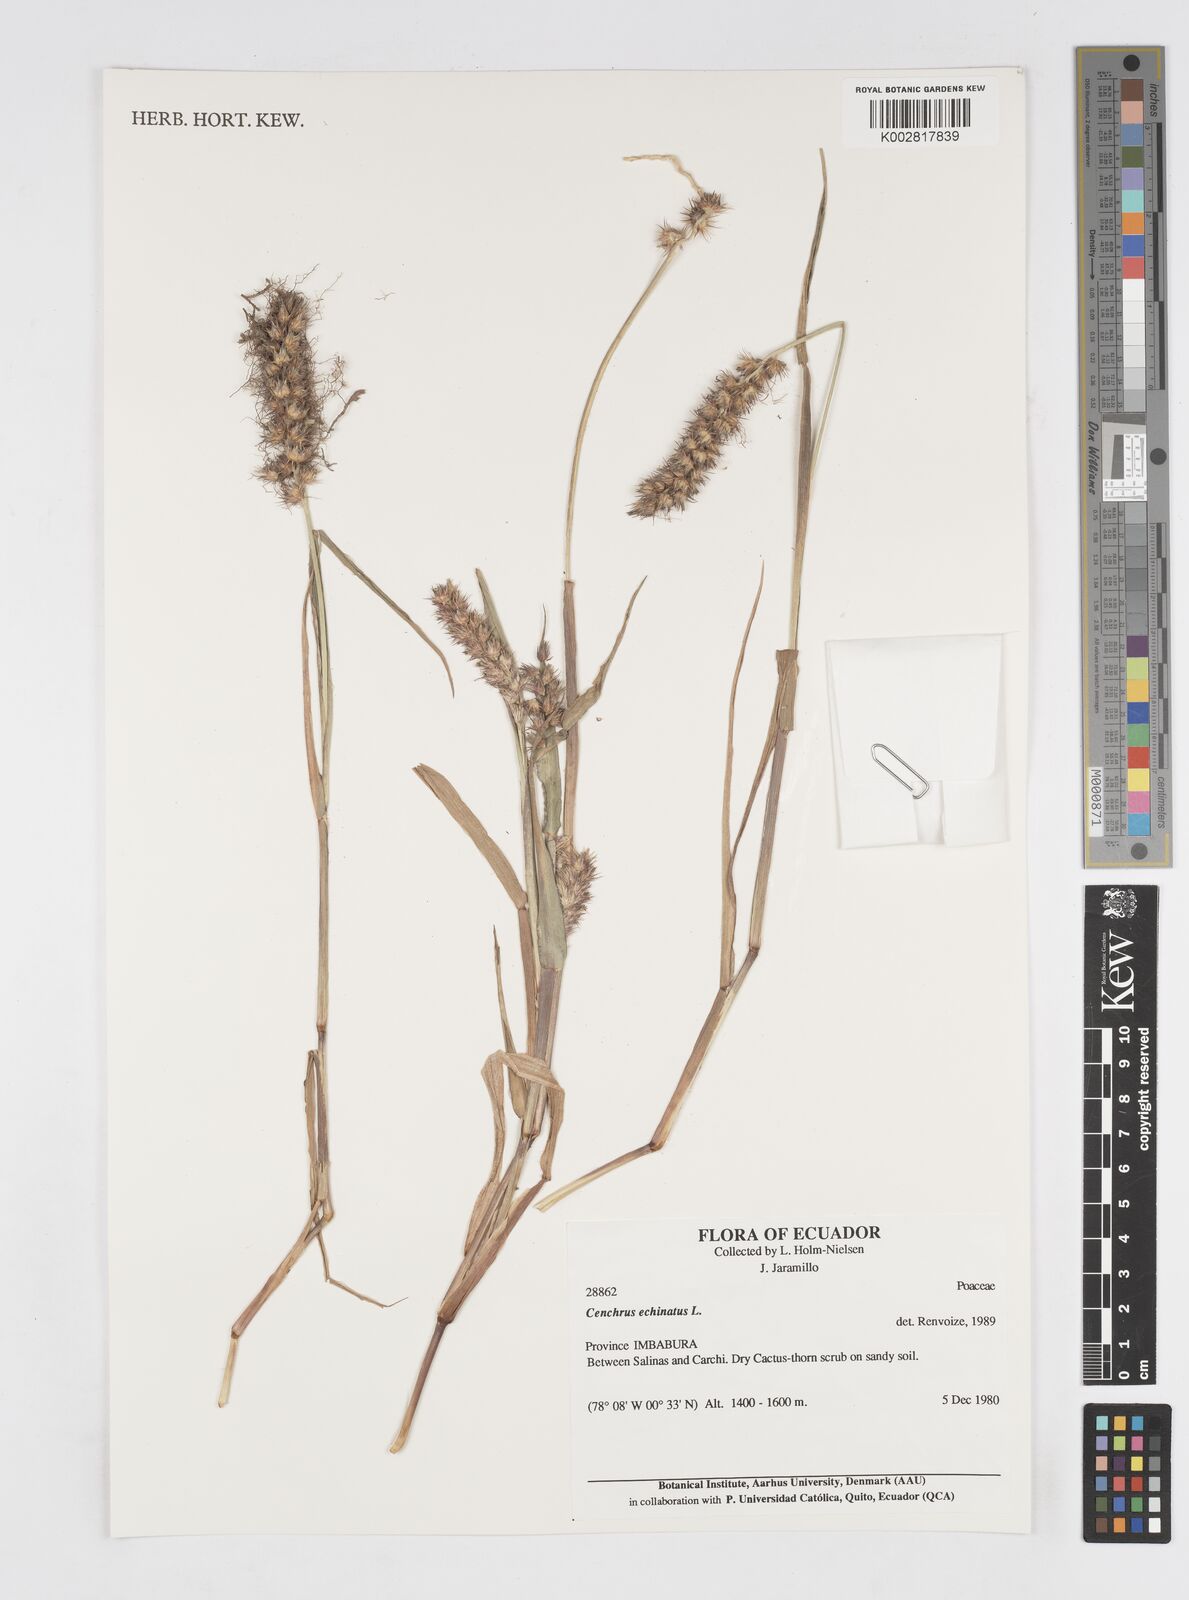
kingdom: Plantae
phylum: Tracheophyta
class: Liliopsida
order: Poales
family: Poaceae
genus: Cenchrus
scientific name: Cenchrus
